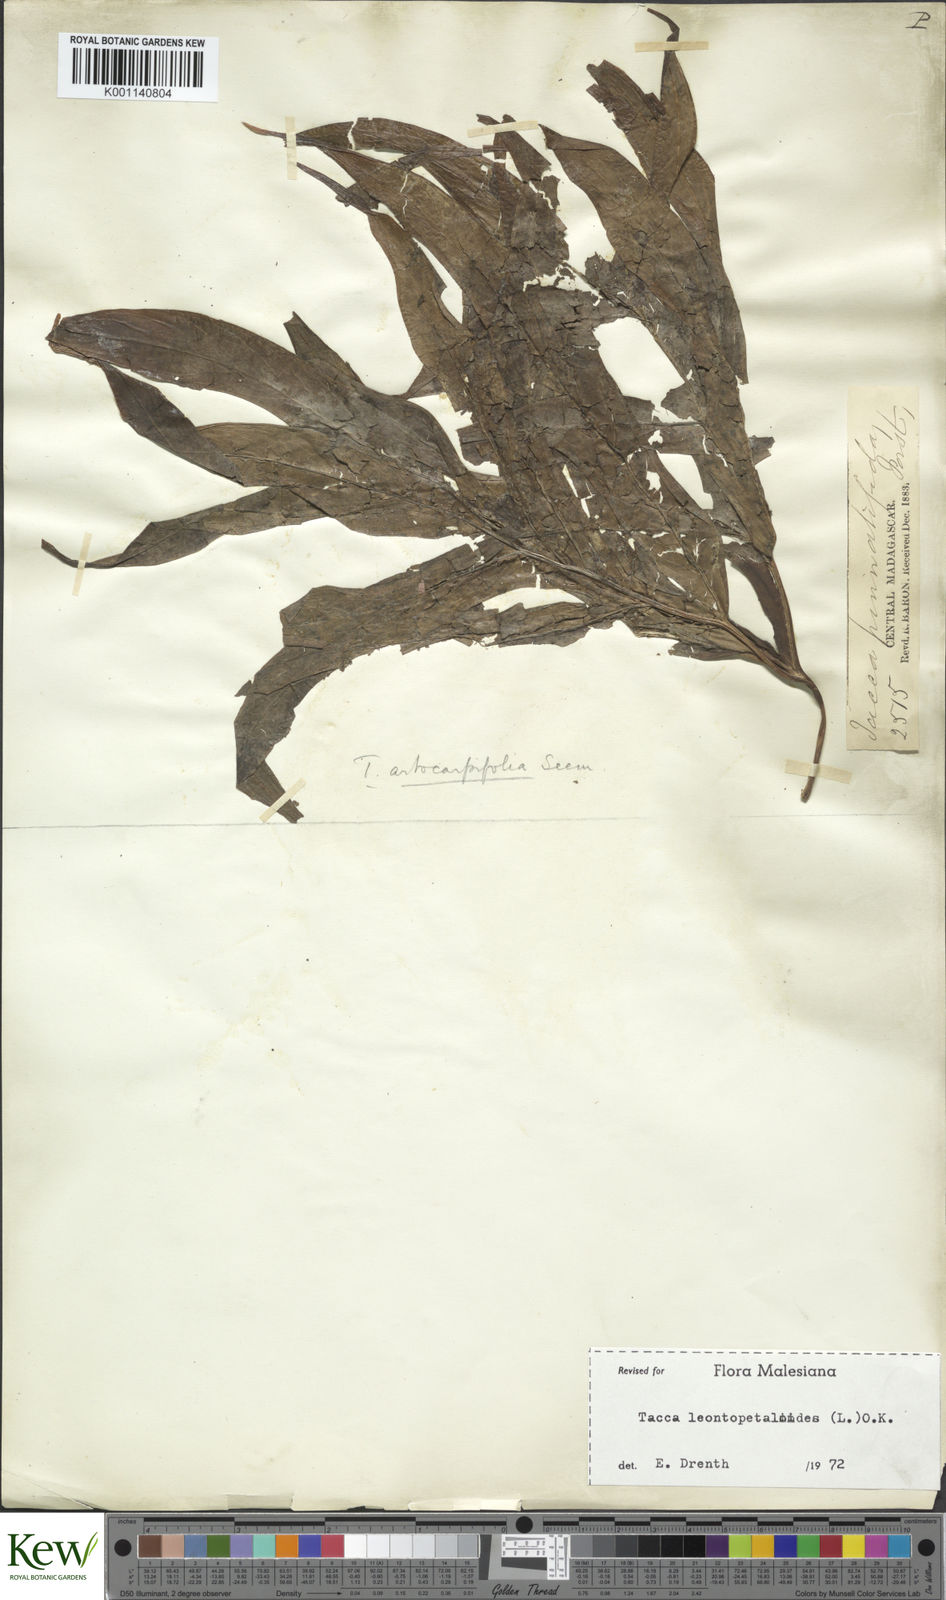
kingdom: Plantae
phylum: Tracheophyta
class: Liliopsida
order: Dioscoreales
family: Dioscoreaceae
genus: Tacca
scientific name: Tacca leontopetaloides
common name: Arrowroot
